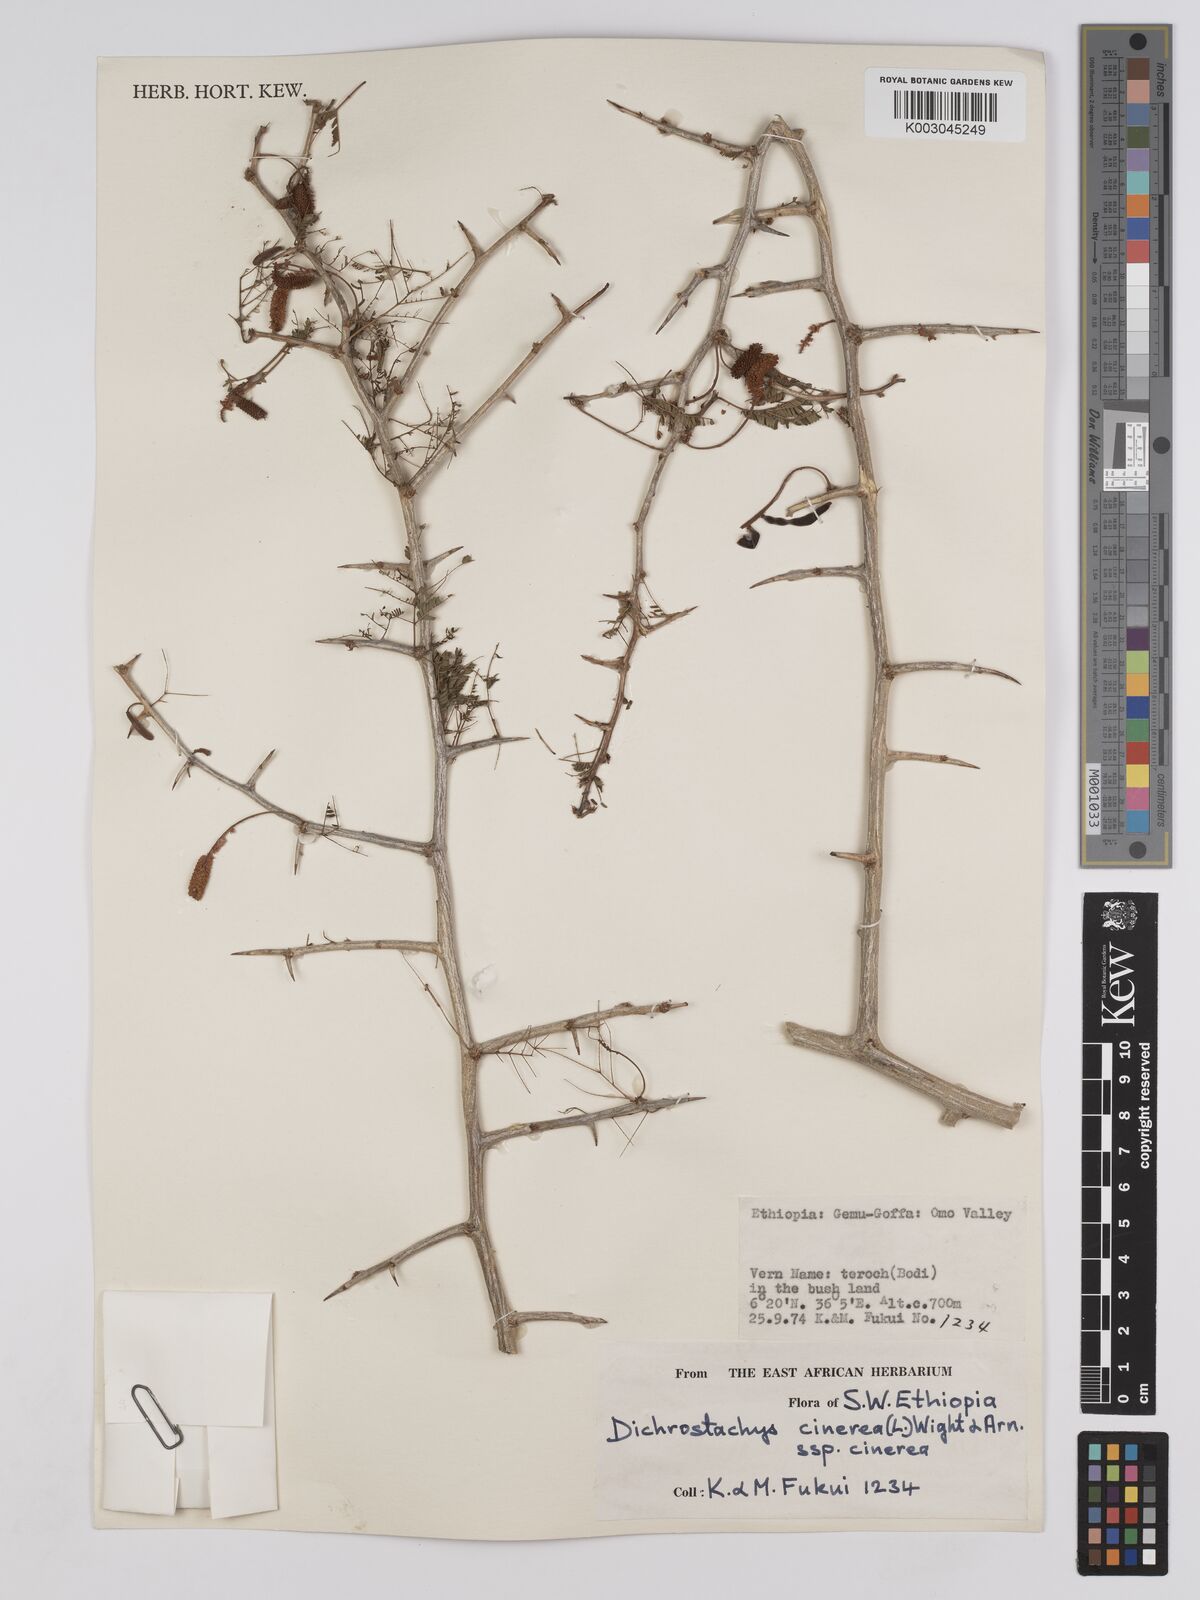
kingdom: Plantae
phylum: Tracheophyta
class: Magnoliopsida
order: Fabales
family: Fabaceae
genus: Dichrostachys
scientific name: Dichrostachys cinerea
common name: Sicklebush
